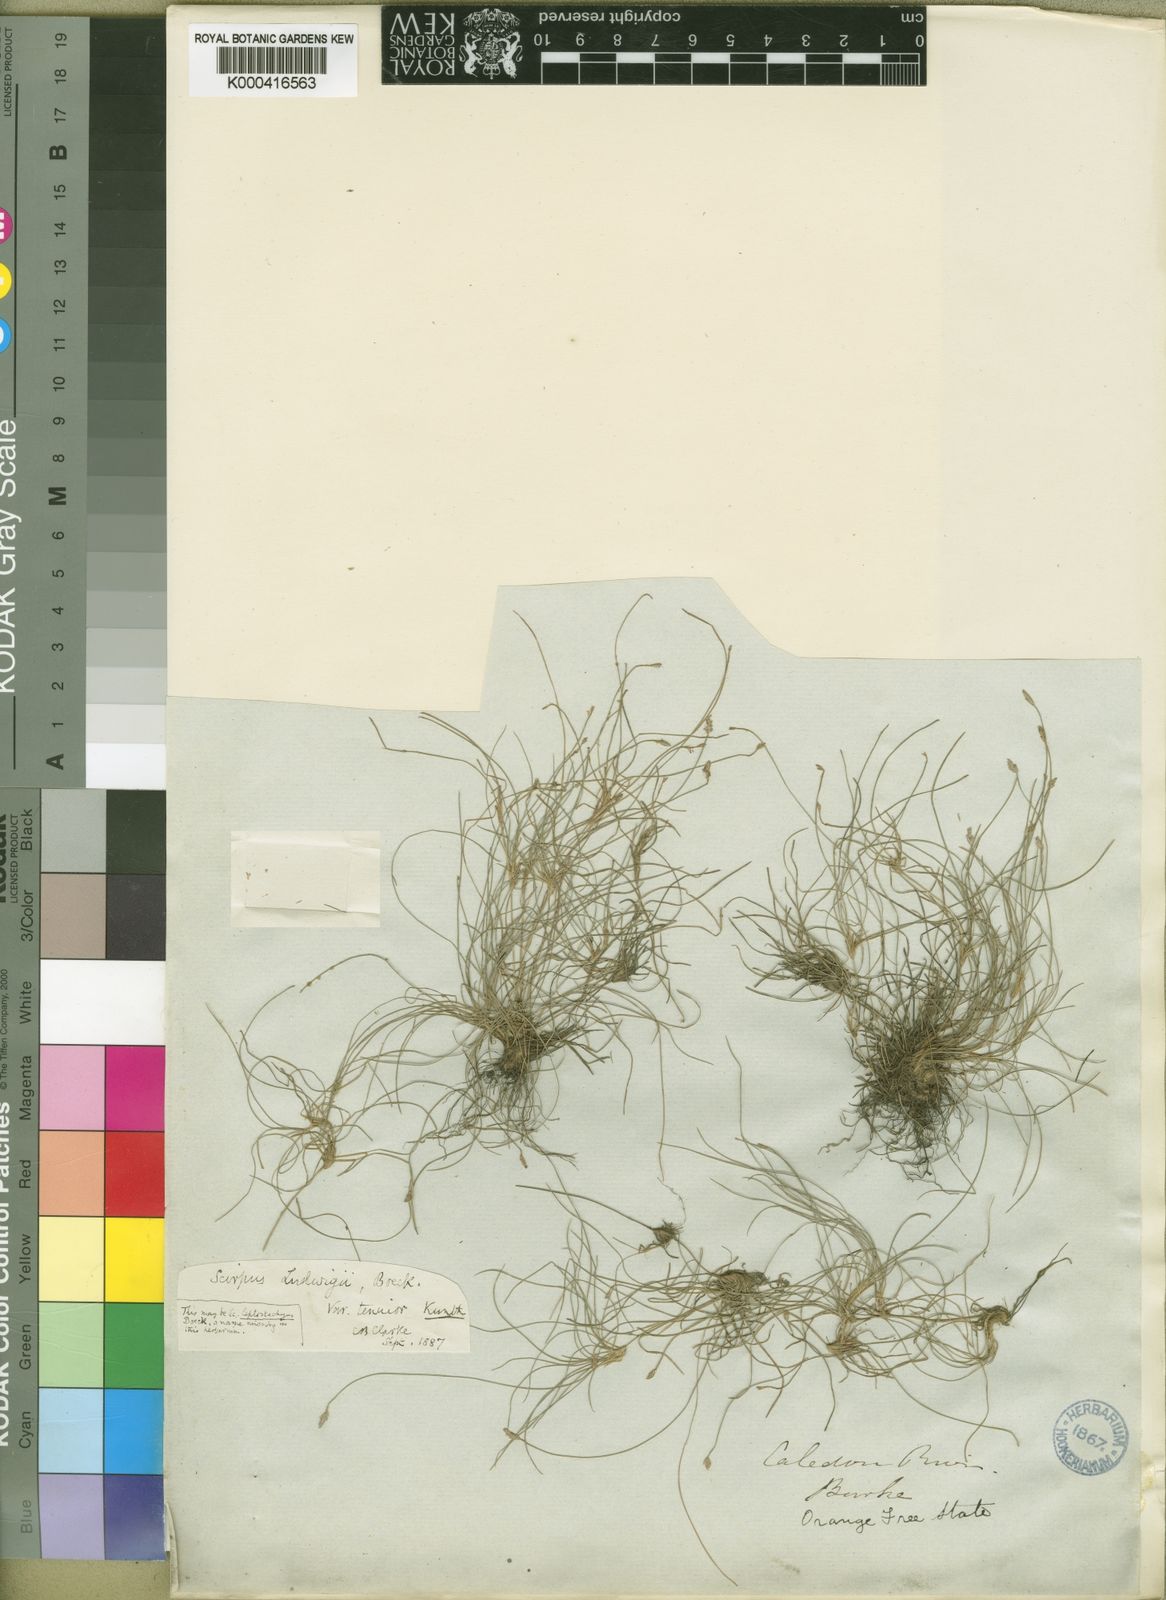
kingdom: Plantae
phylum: Tracheophyta
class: Liliopsida
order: Poales
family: Cyperaceae
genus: Isolepis
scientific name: Isolepis ludwigii
